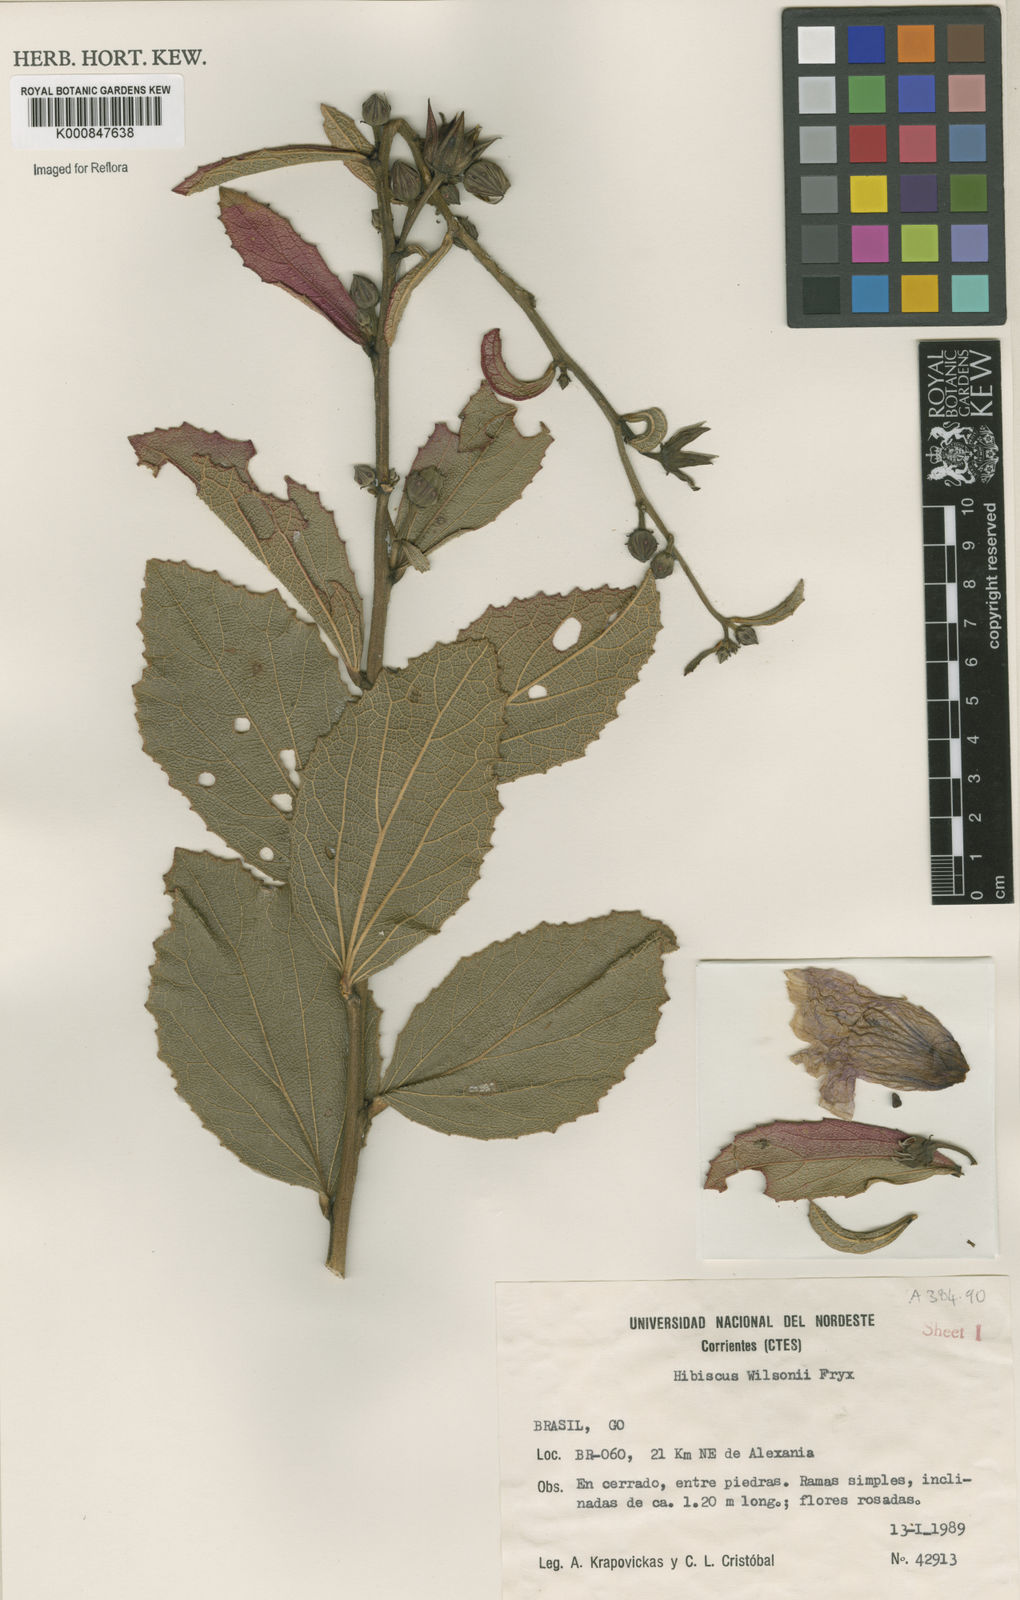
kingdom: Plantae
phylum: Tracheophyta
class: Magnoliopsida
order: Malvales
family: Malvaceae
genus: Hibiscus
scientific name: Hibiscus wilsonii
